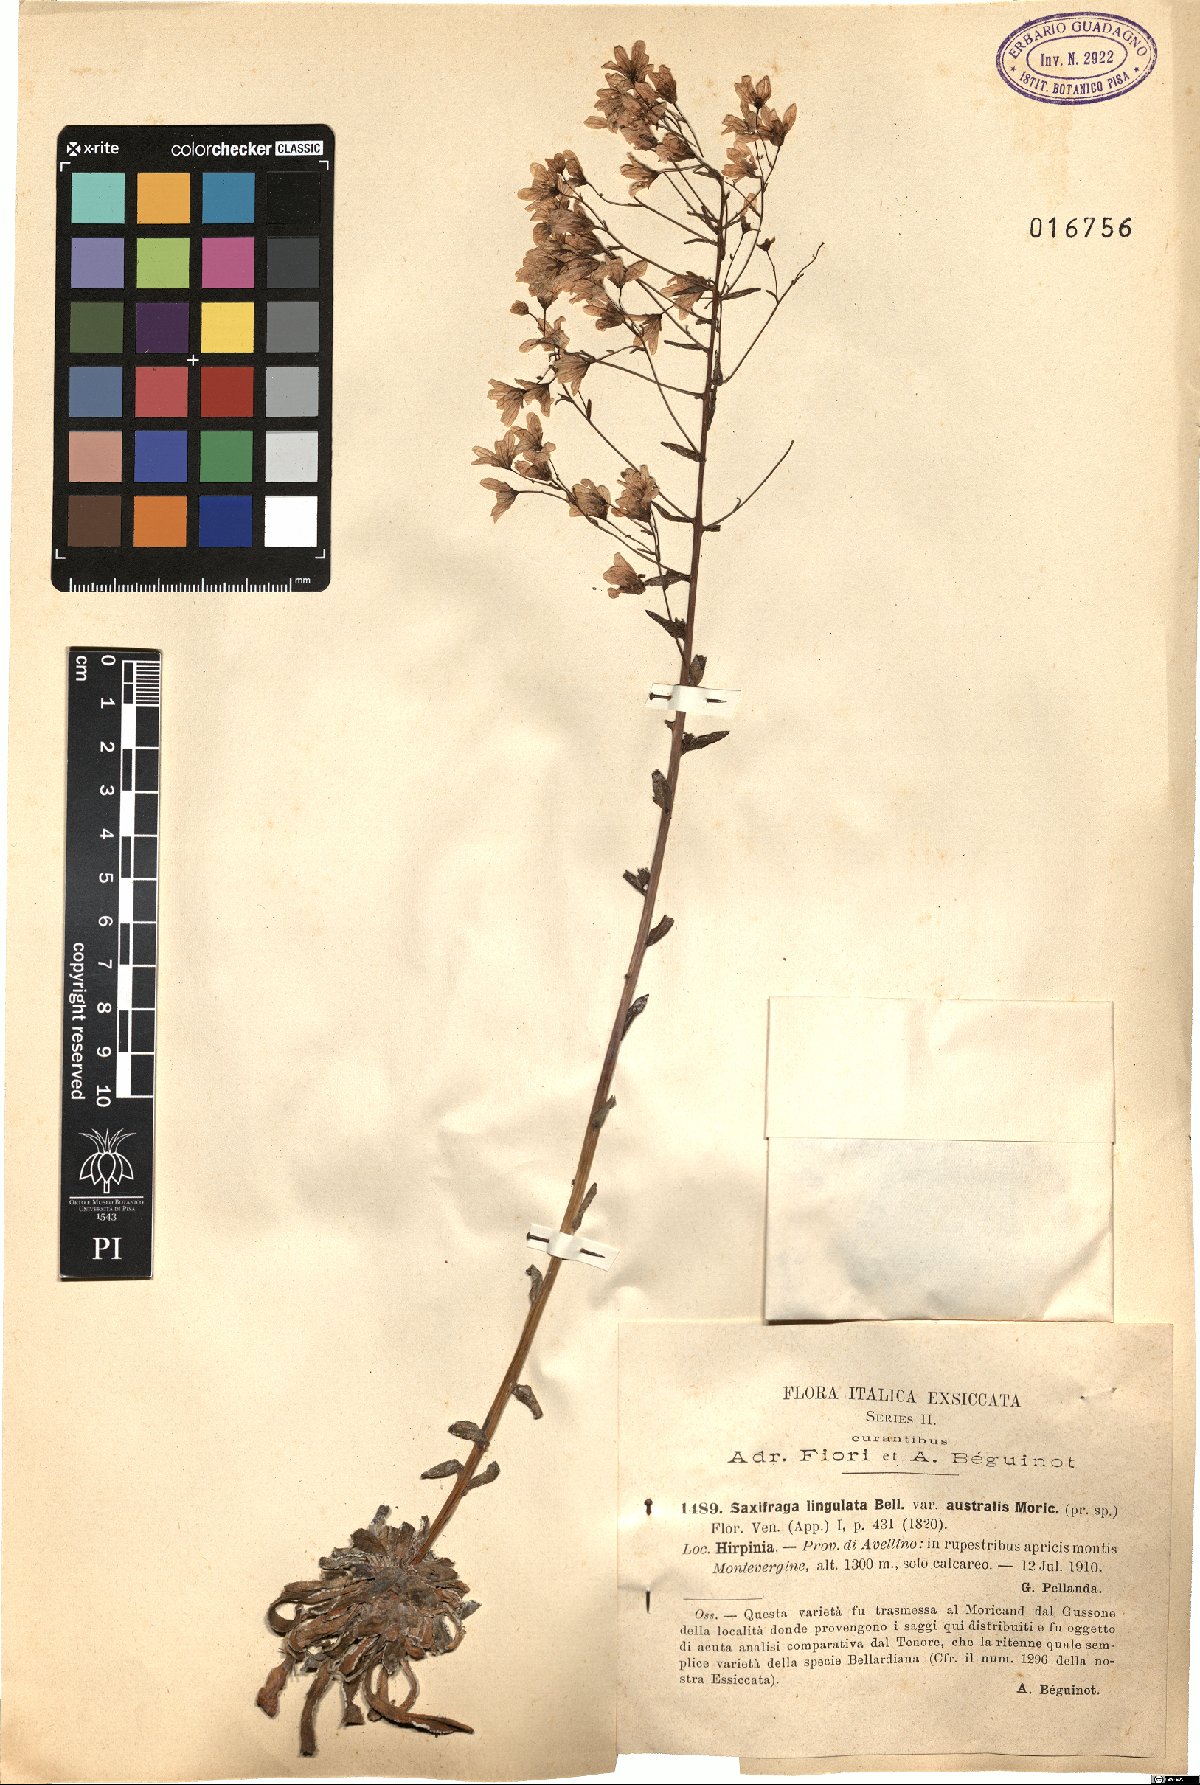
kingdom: Plantae
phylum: Tracheophyta
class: Magnoliopsida
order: Saxifragales
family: Saxifragaceae
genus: Saxifraga
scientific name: Saxifraga callosa
